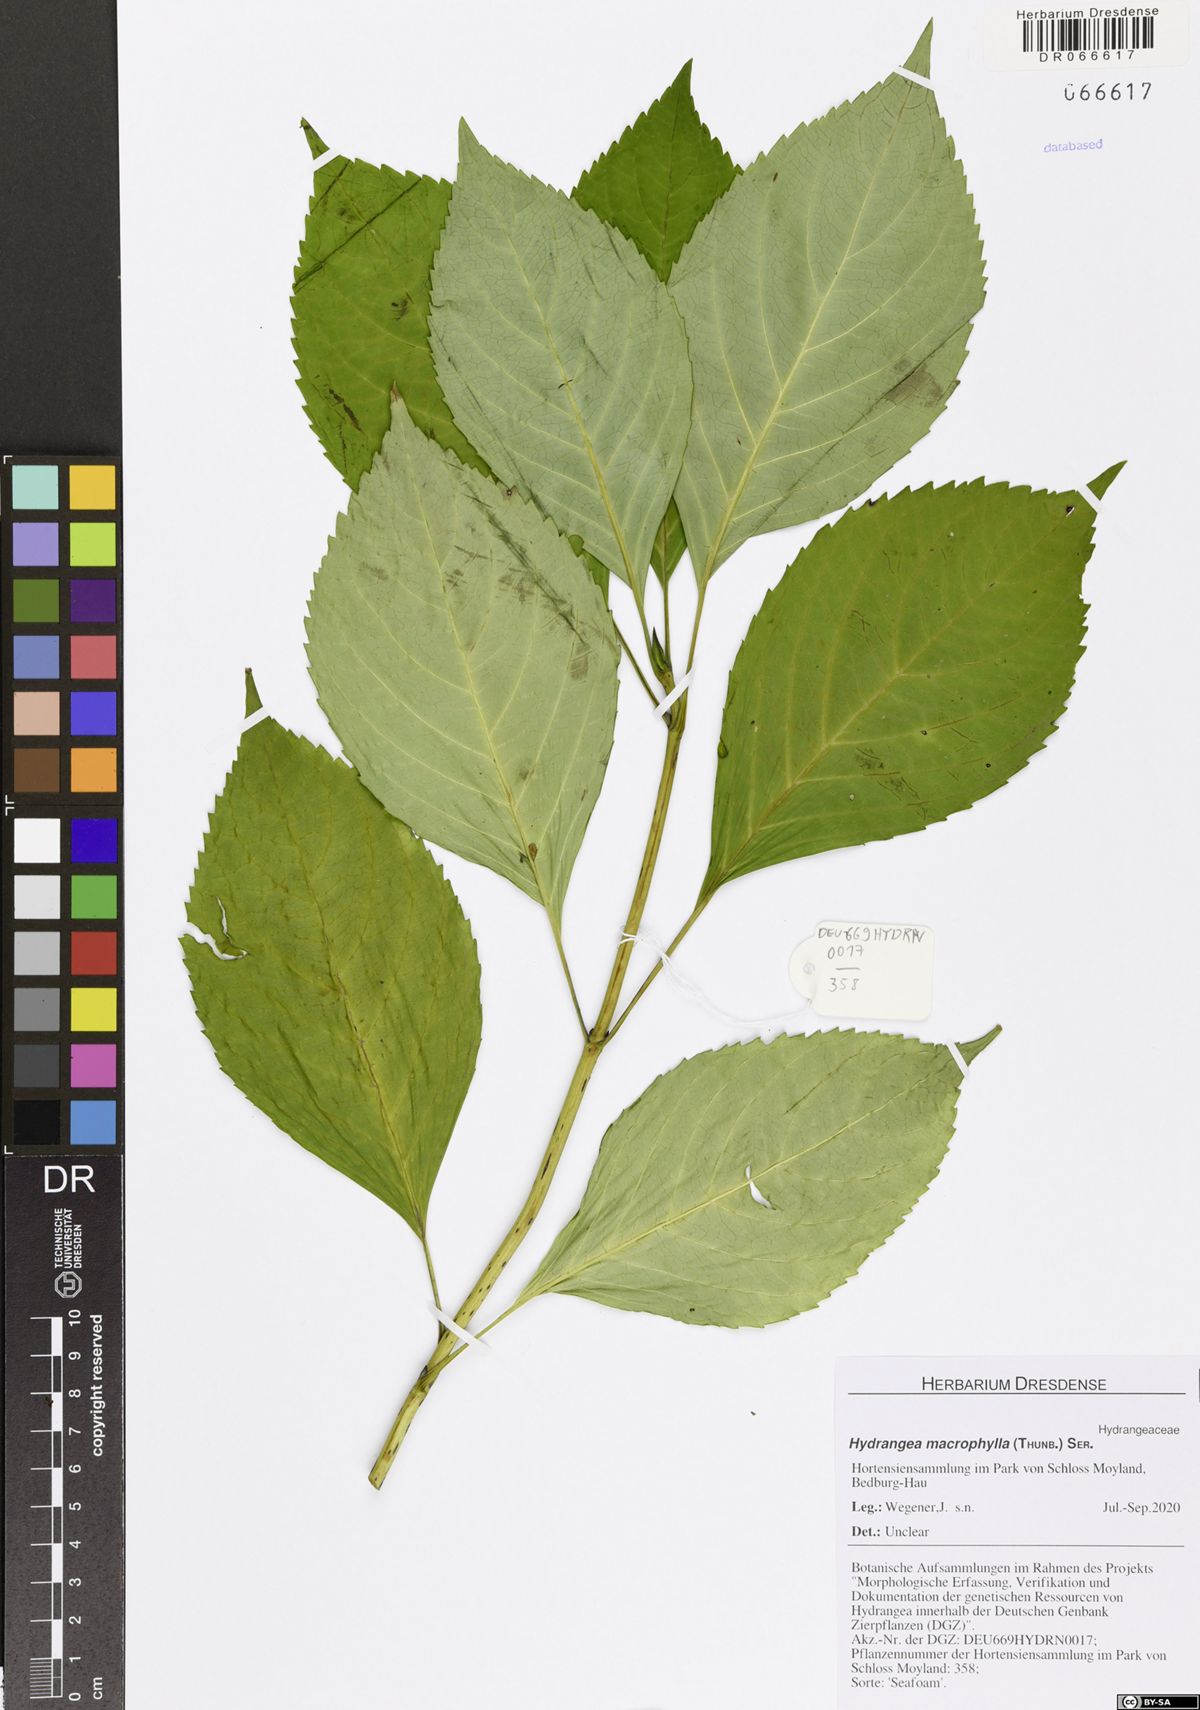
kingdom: Plantae
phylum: Tracheophyta
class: Magnoliopsida
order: Cornales
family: Hydrangeaceae
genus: Hydrangea
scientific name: Hydrangea macrophylla
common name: Hydrangea
